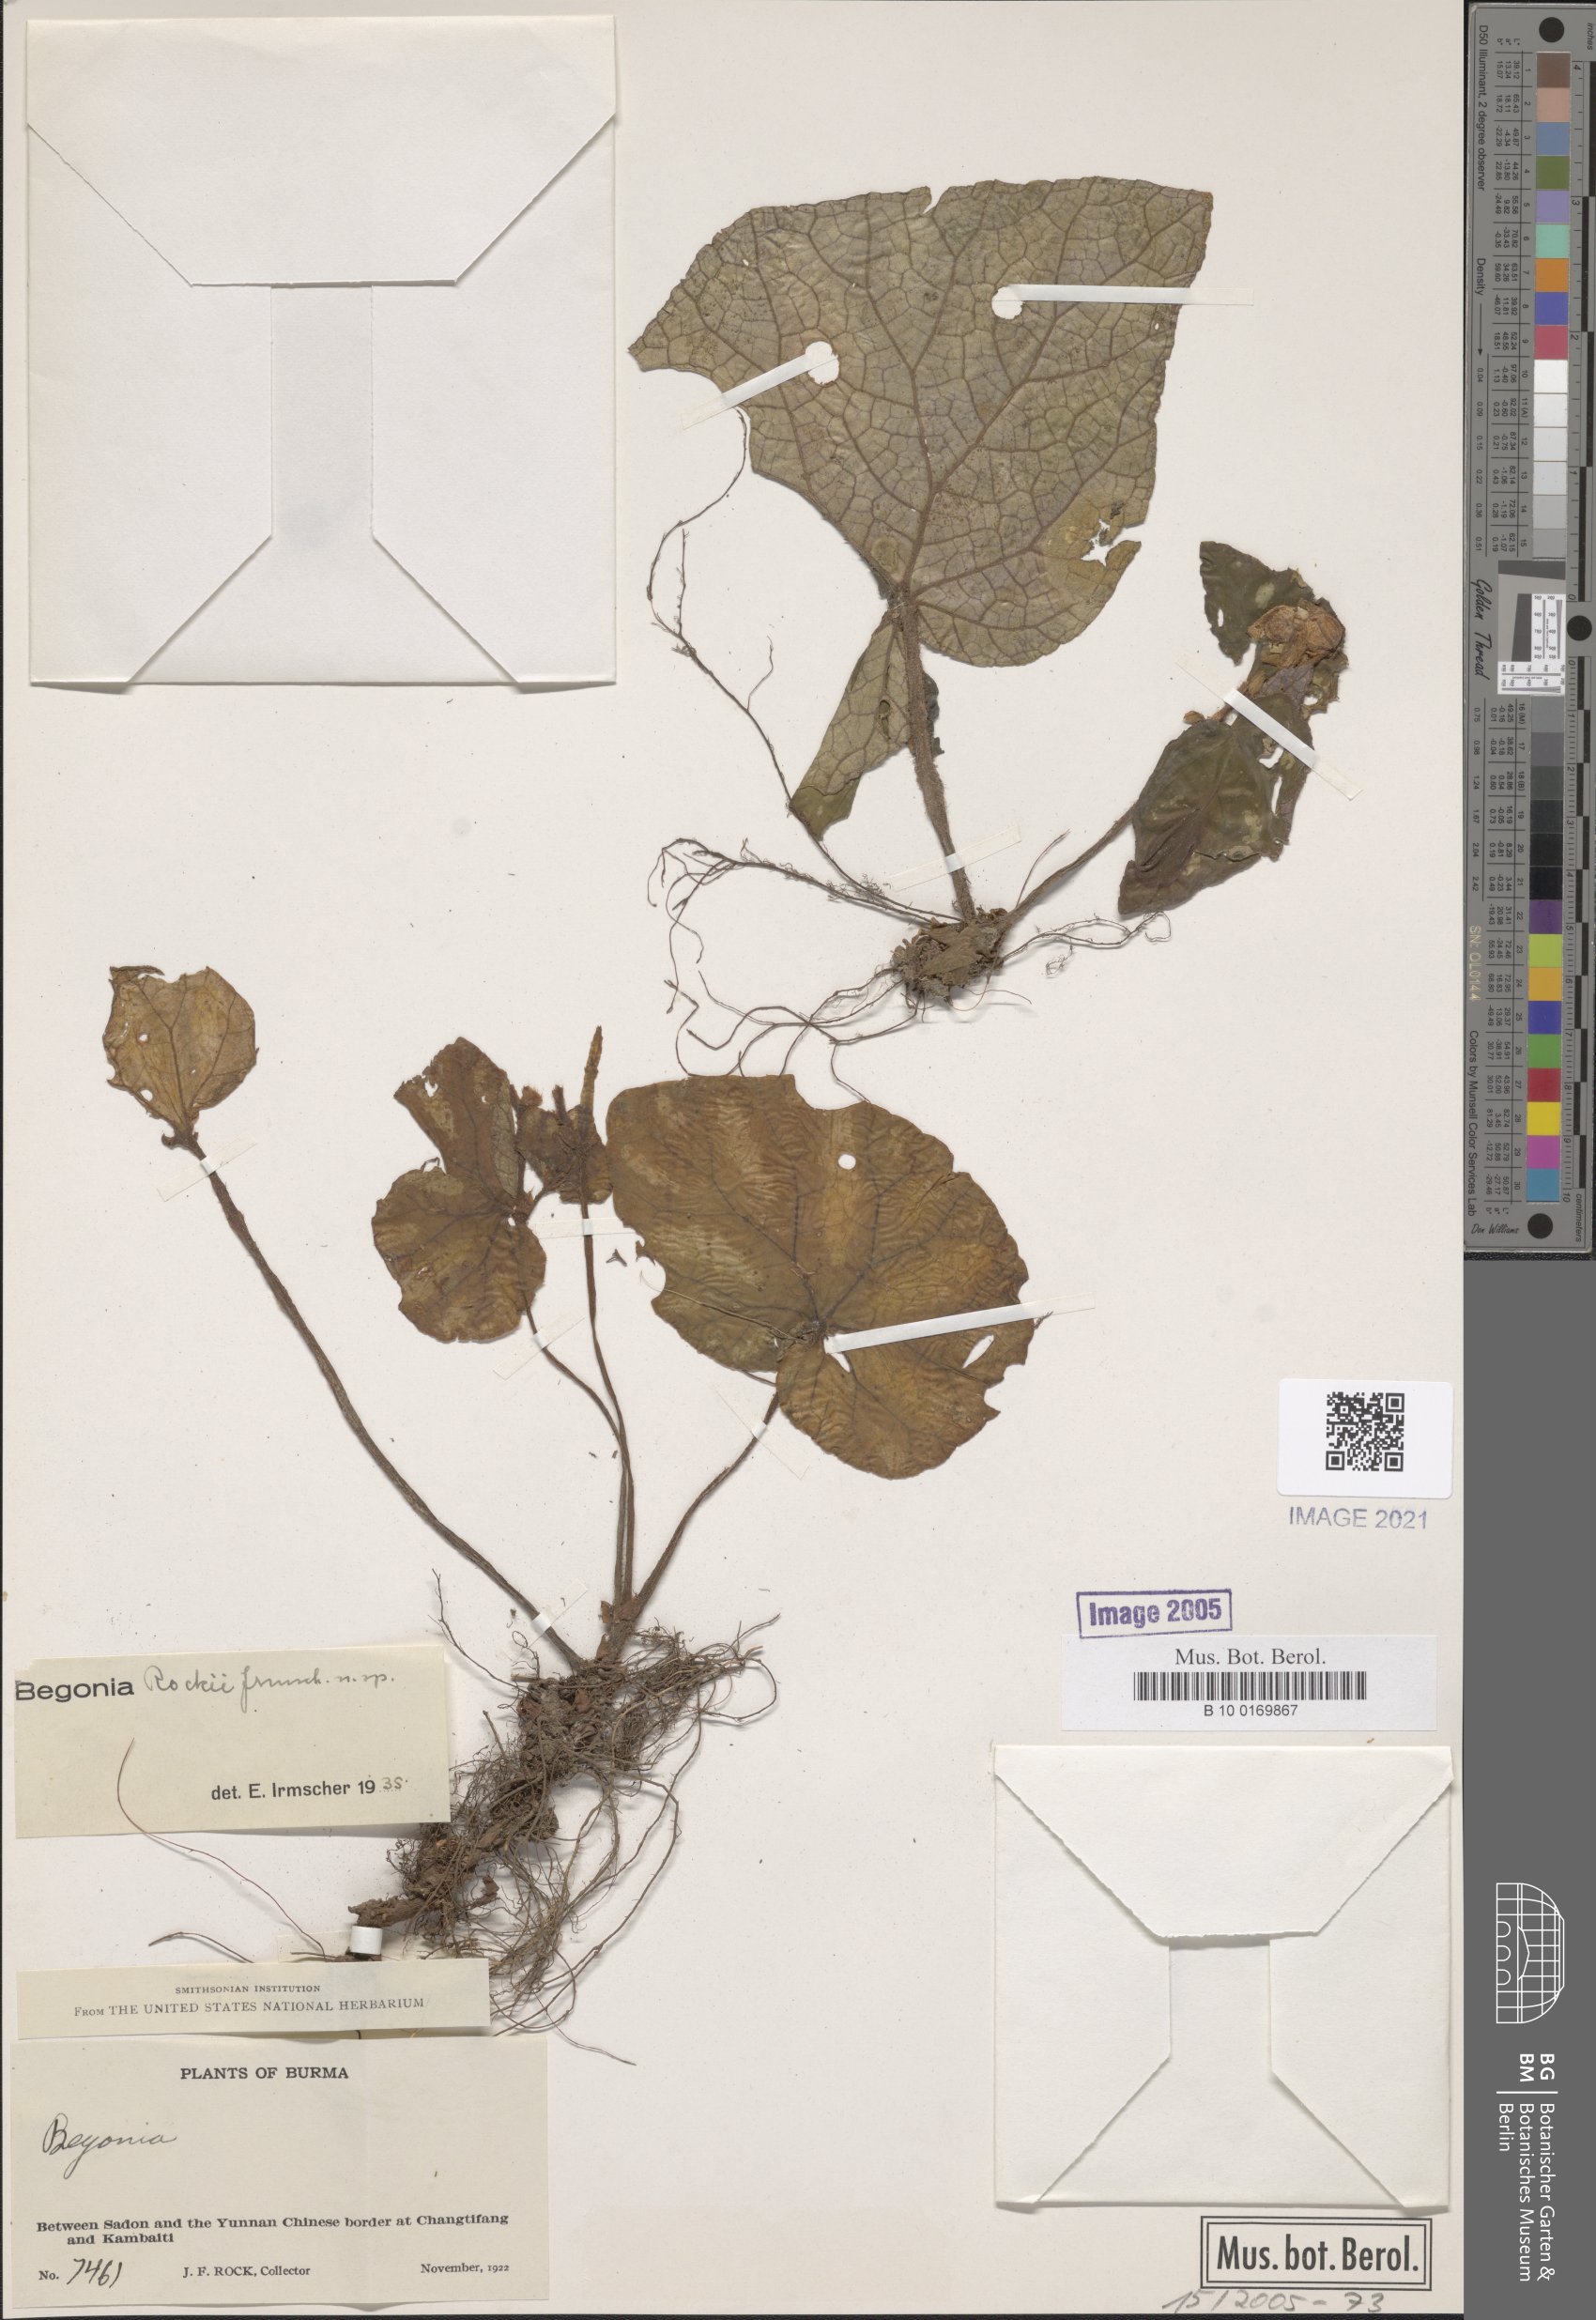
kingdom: Plantae
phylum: Tracheophyta
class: Magnoliopsida
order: Cucurbitales
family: Begoniaceae
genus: Begonia
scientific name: Begonia rockii
